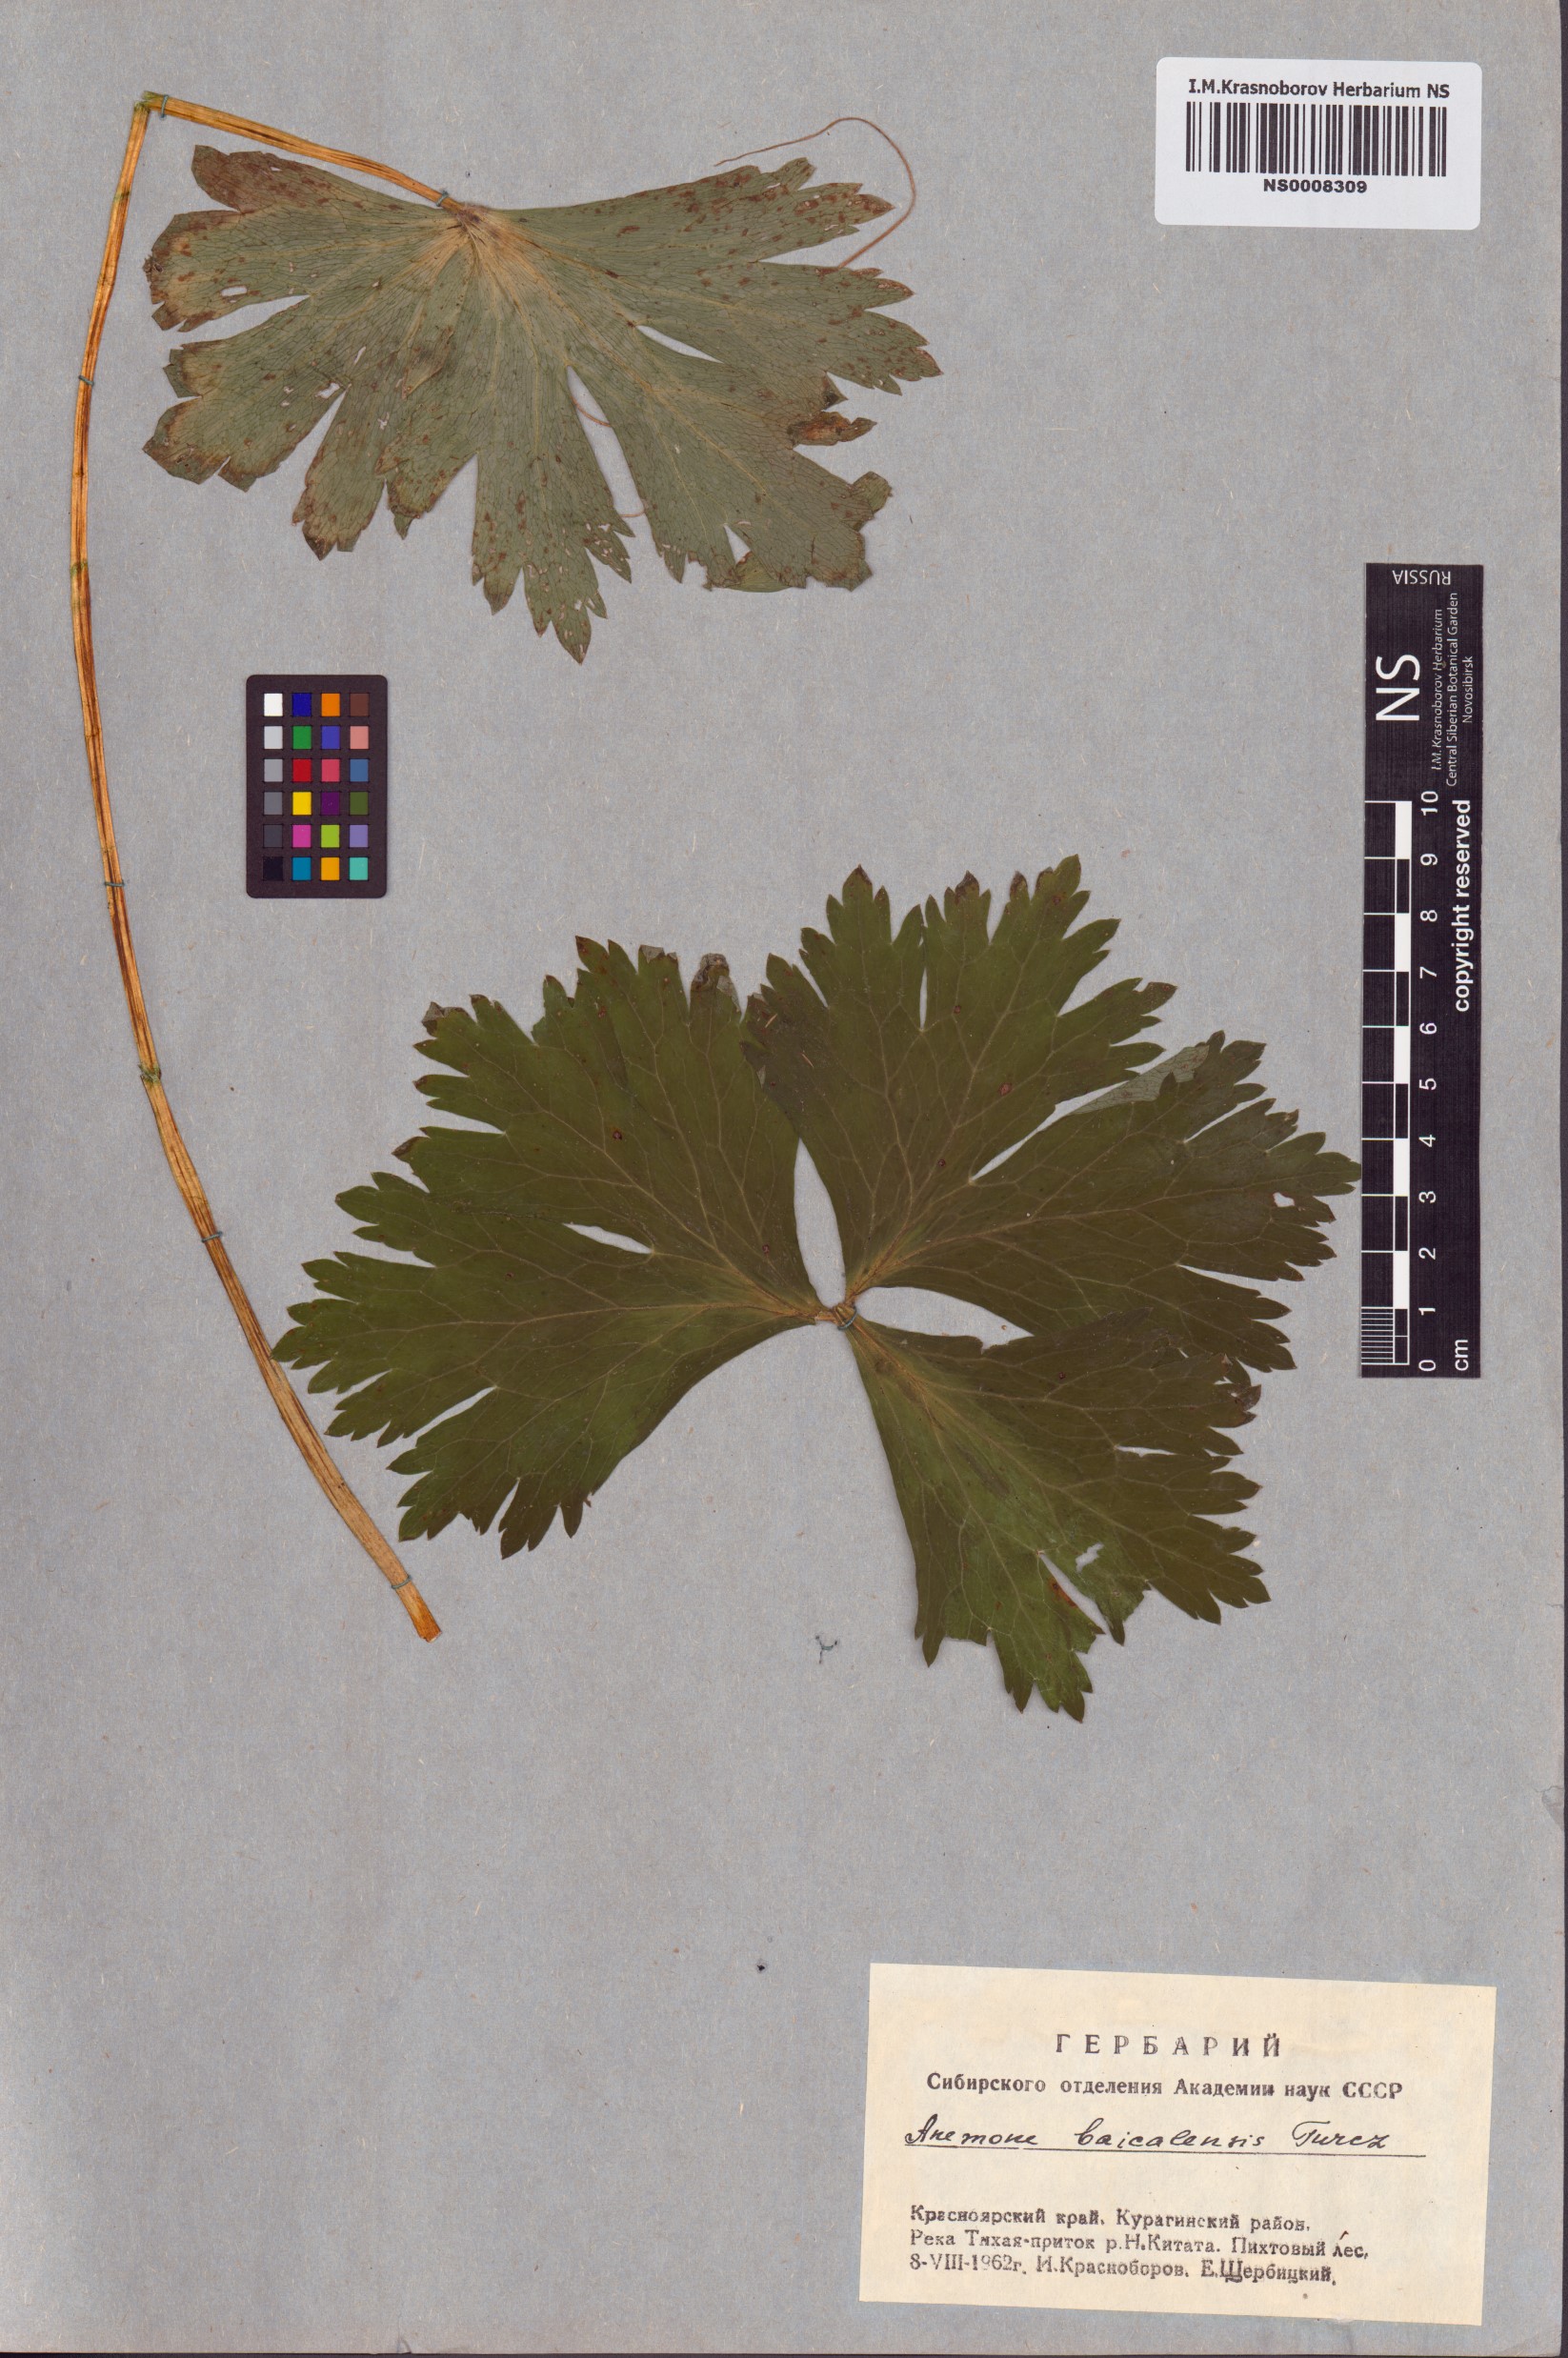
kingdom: Plantae
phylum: Tracheophyta
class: Magnoliopsida
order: Ranunculales
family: Ranunculaceae
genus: Anemonastrum
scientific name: Anemonastrum baicalense
